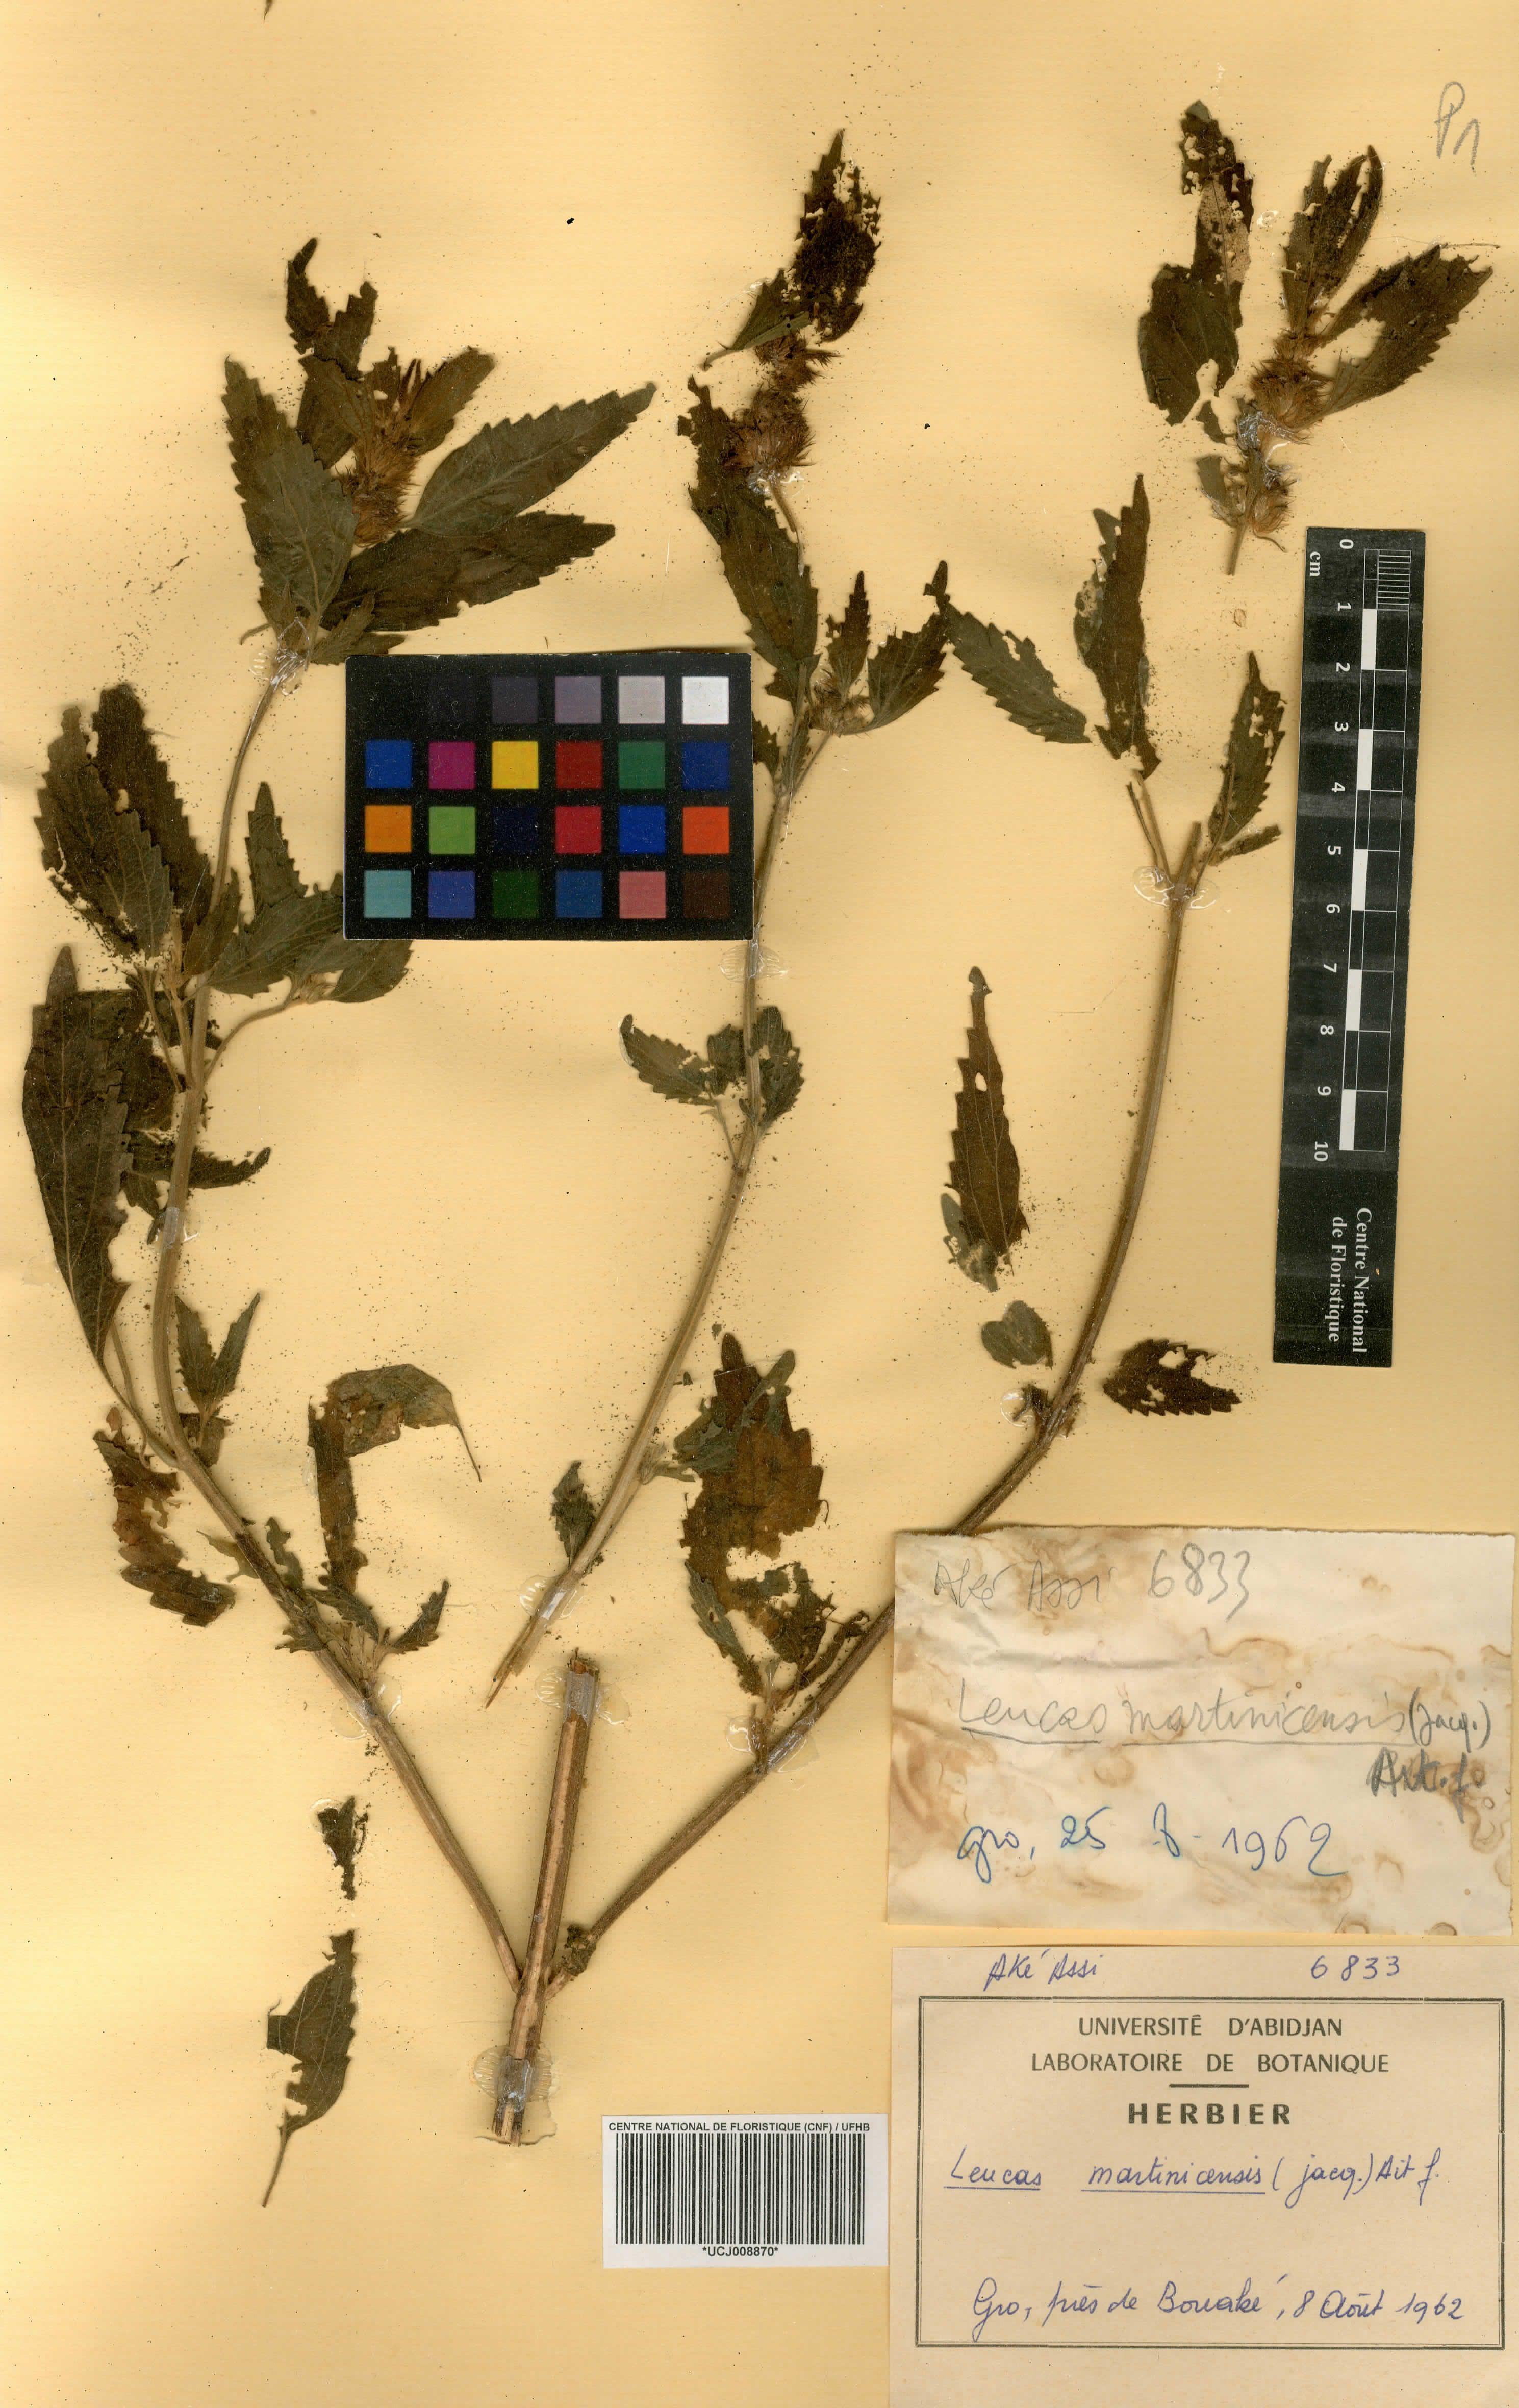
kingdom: Plantae
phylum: Tracheophyta
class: Magnoliopsida
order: Lamiales
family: Lamiaceae
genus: Leucas
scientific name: Leucas martinicensis
